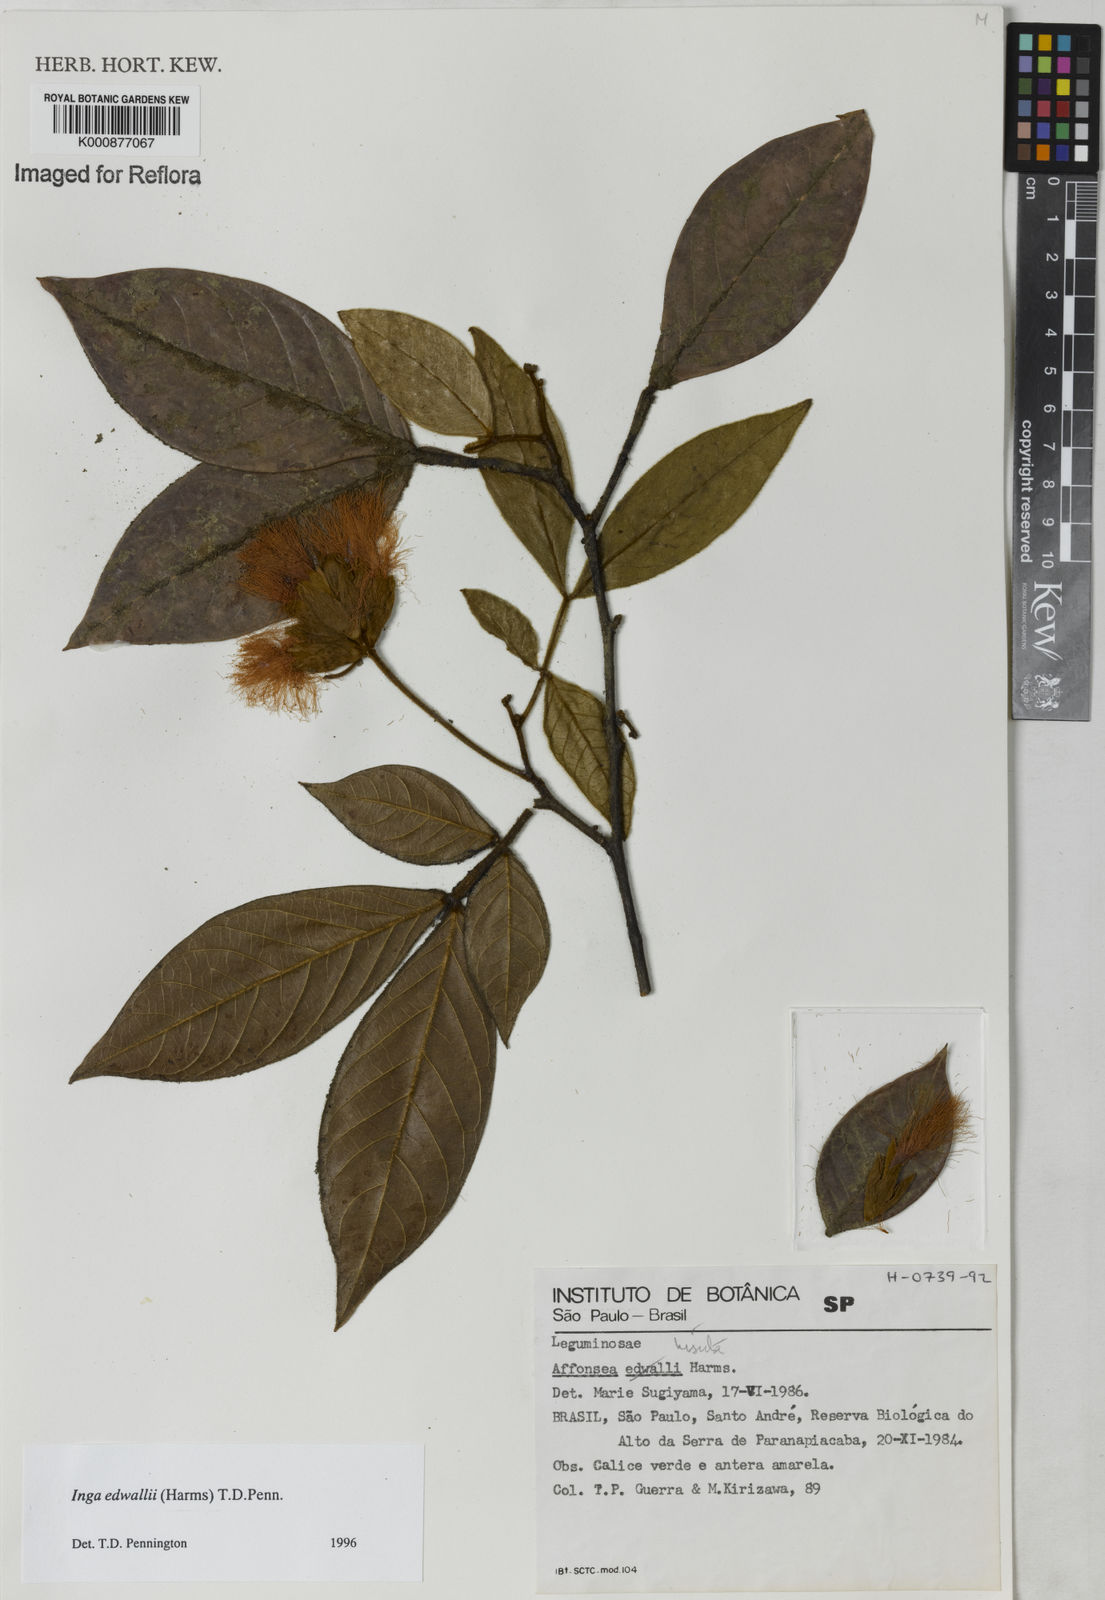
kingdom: Plantae
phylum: Tracheophyta
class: Magnoliopsida
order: Fabales
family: Fabaceae
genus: Inga
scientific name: Inga edwallii
